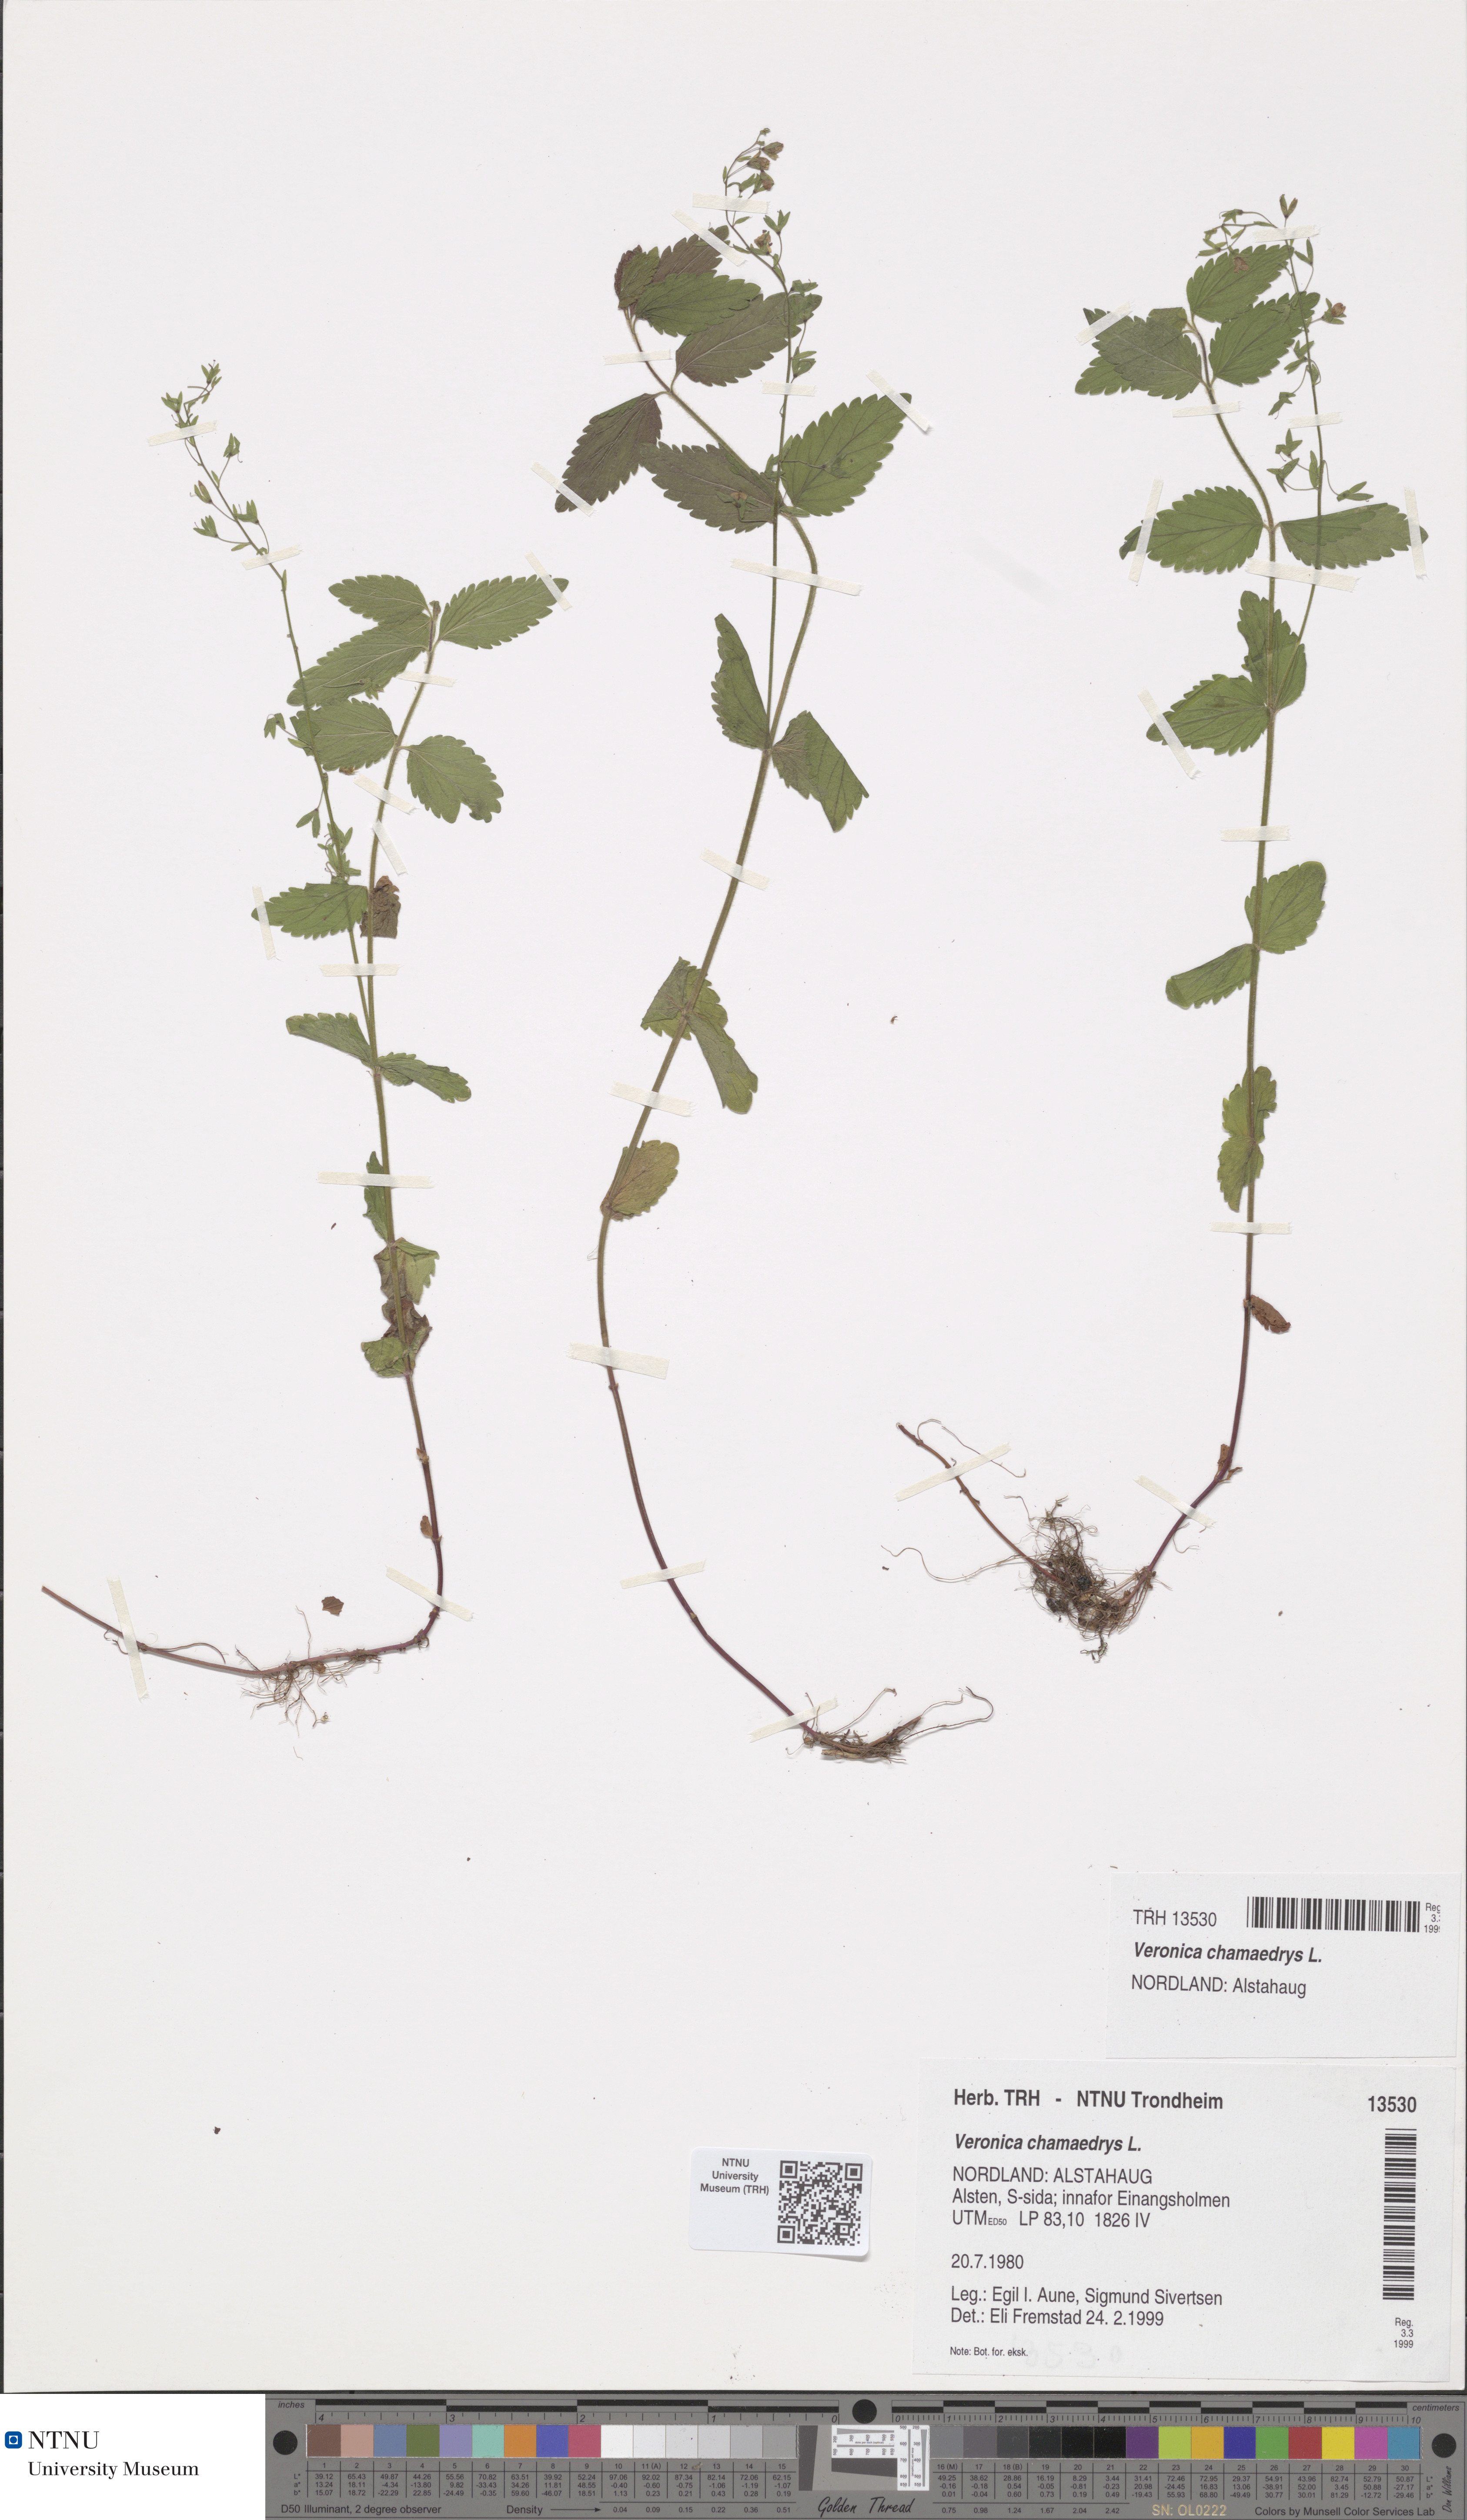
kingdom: Plantae
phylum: Tracheophyta
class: Magnoliopsida
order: Lamiales
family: Plantaginaceae
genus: Veronica
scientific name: Veronica chamaedrys
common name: Germander speedwell
